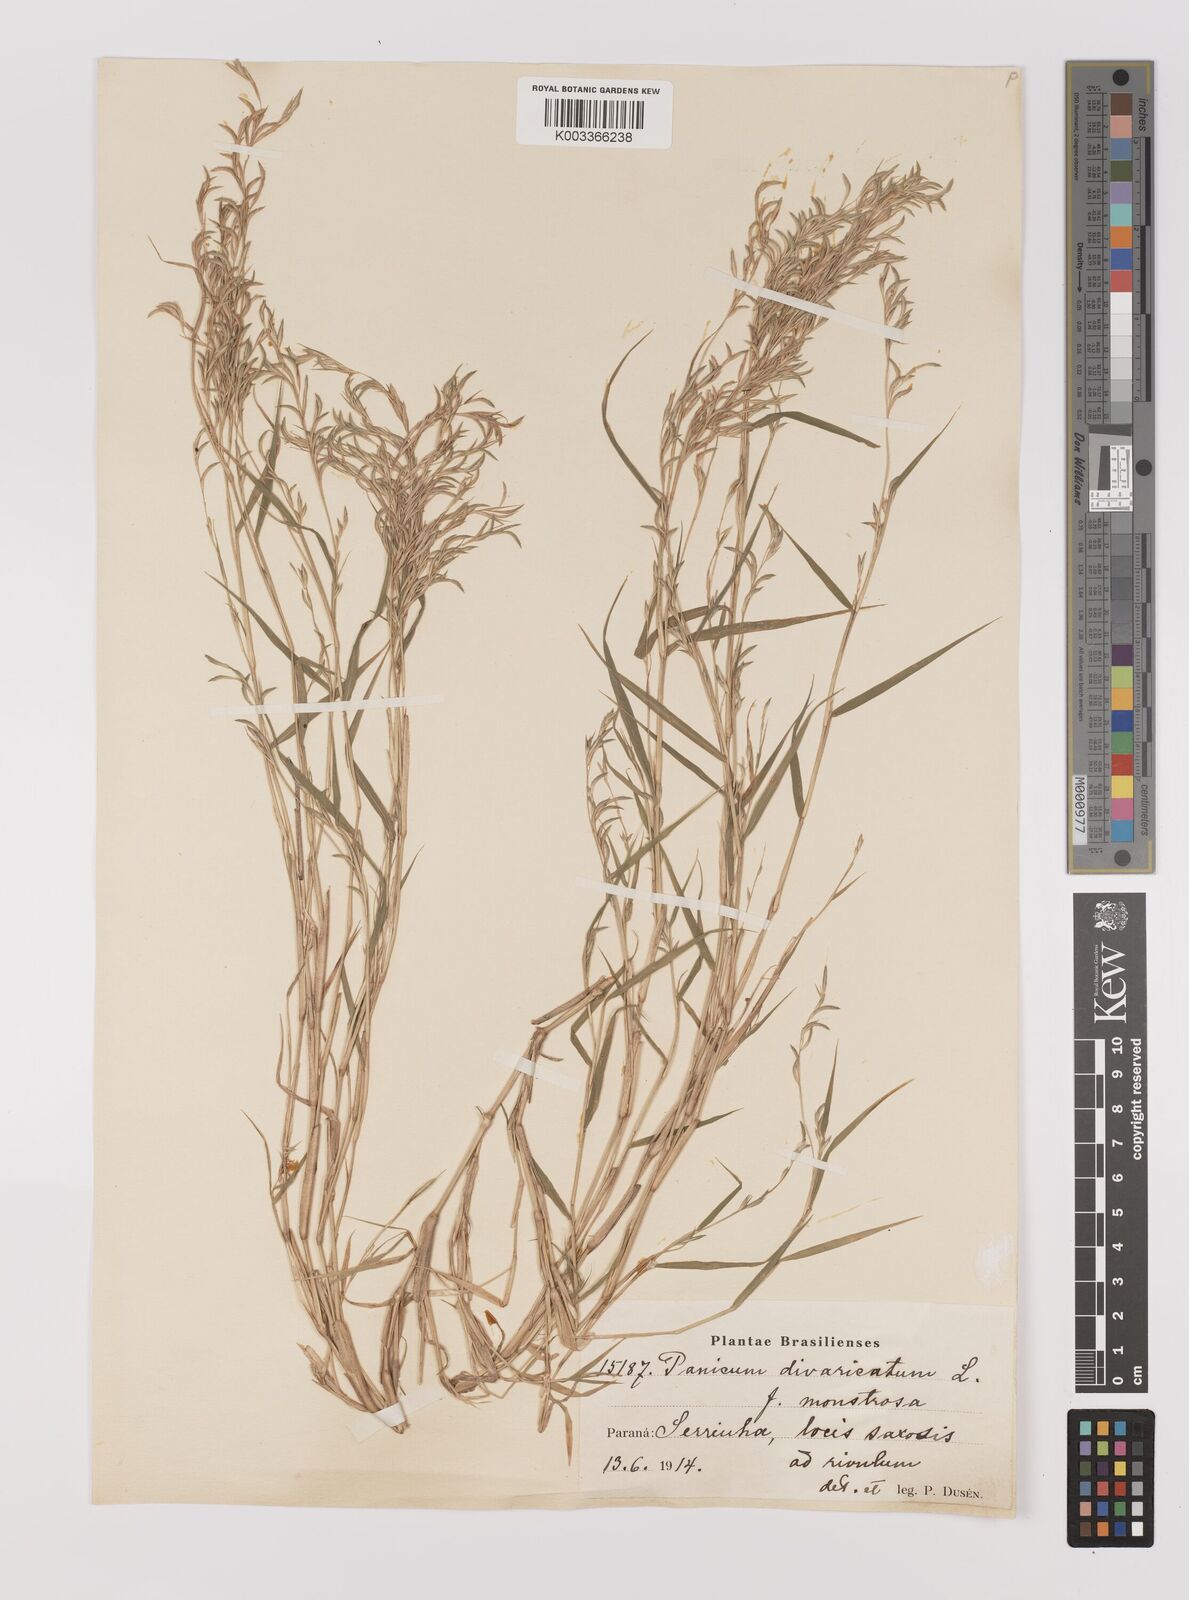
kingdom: Plantae
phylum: Tracheophyta
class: Liliopsida
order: Poales
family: Poaceae
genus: Ichnanthus
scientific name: Ichnanthus
